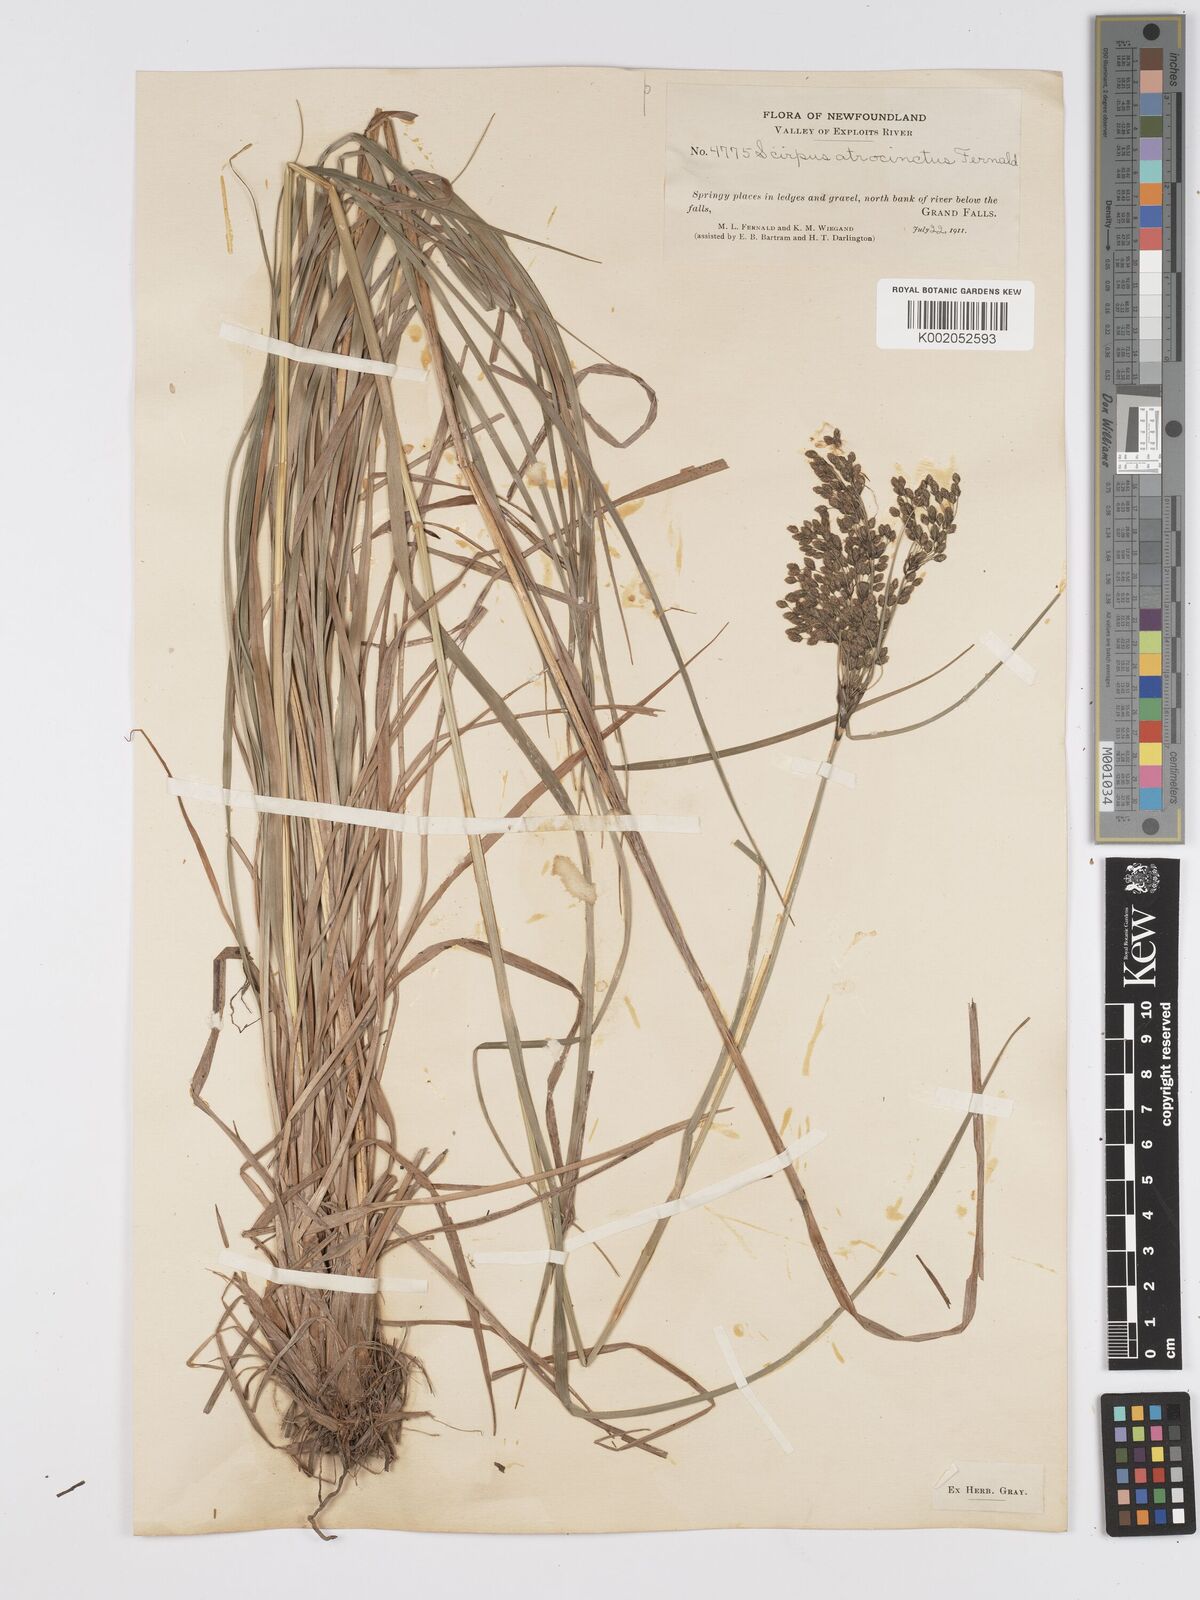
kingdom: Plantae
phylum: Tracheophyta
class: Liliopsida
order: Poales
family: Cyperaceae
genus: Scirpus
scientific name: Scirpus atrocinctus
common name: Black-girdled bulrush
